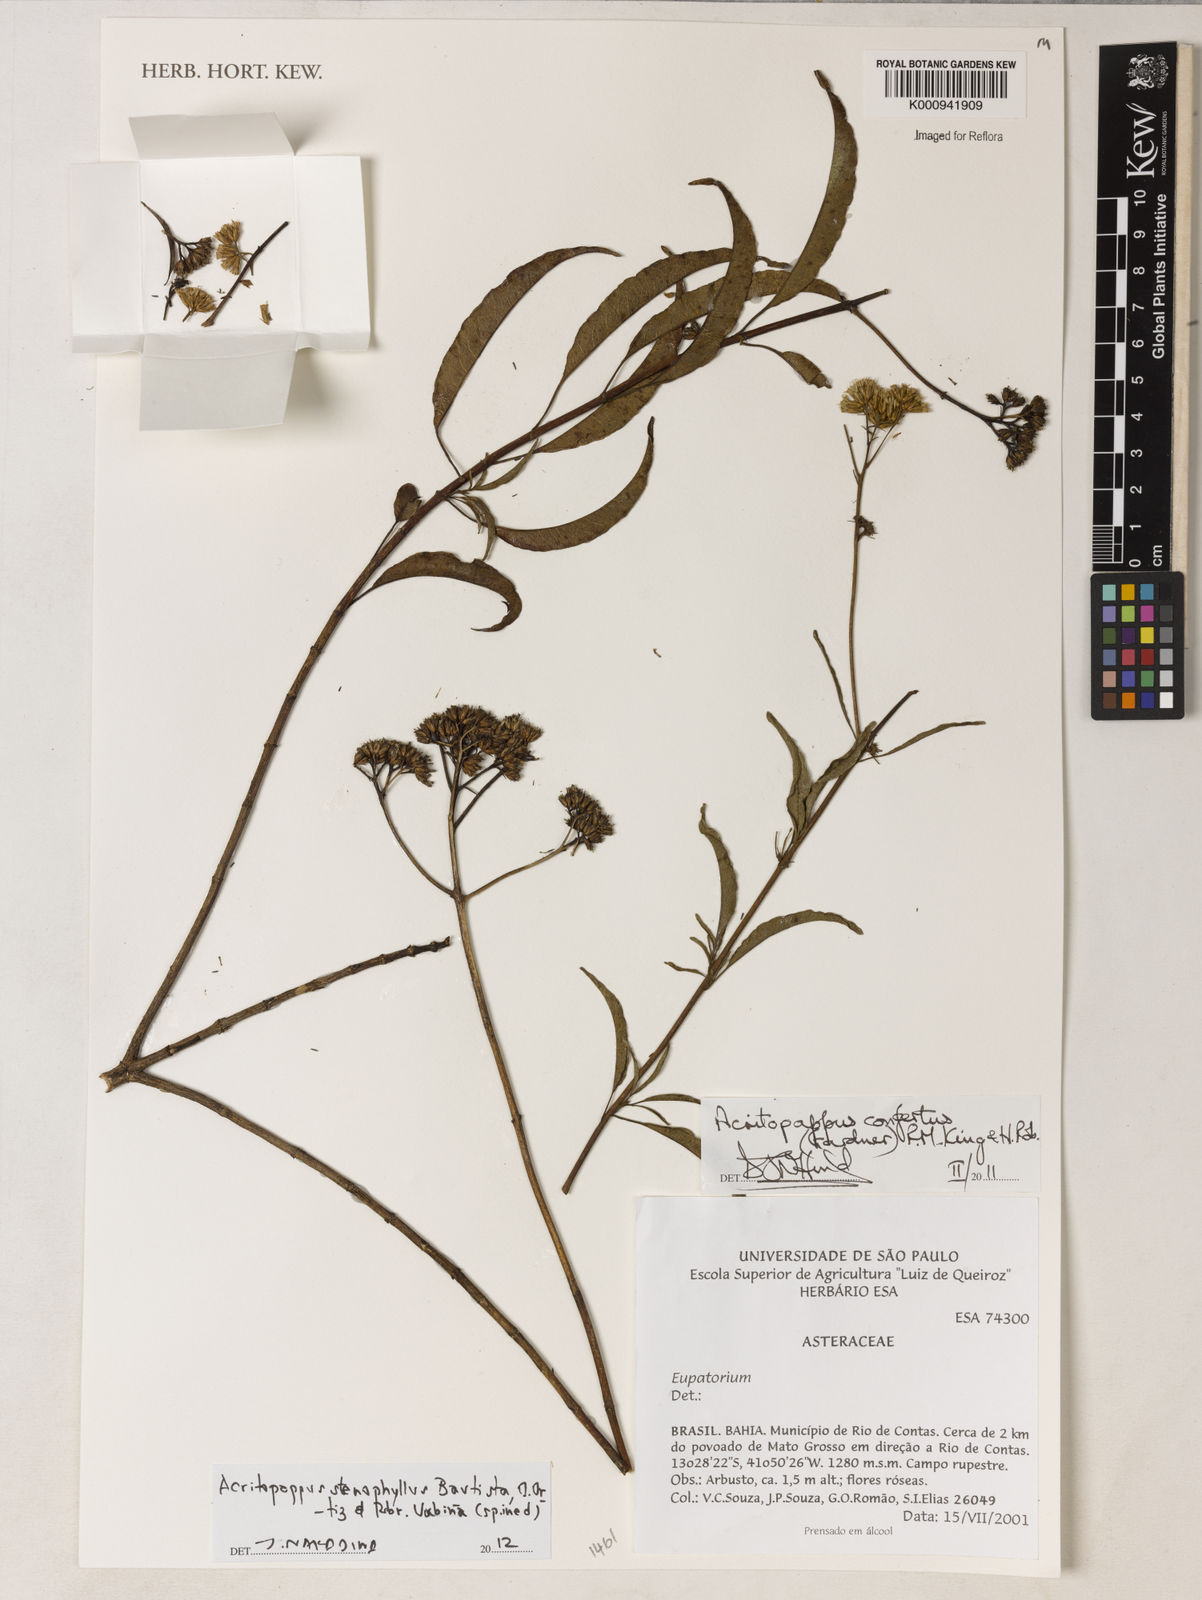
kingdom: Plantae
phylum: Tracheophyta
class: Magnoliopsida
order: Asterales
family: Asteraceae
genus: Acritopappus
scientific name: Acritopappus stenophyllus
